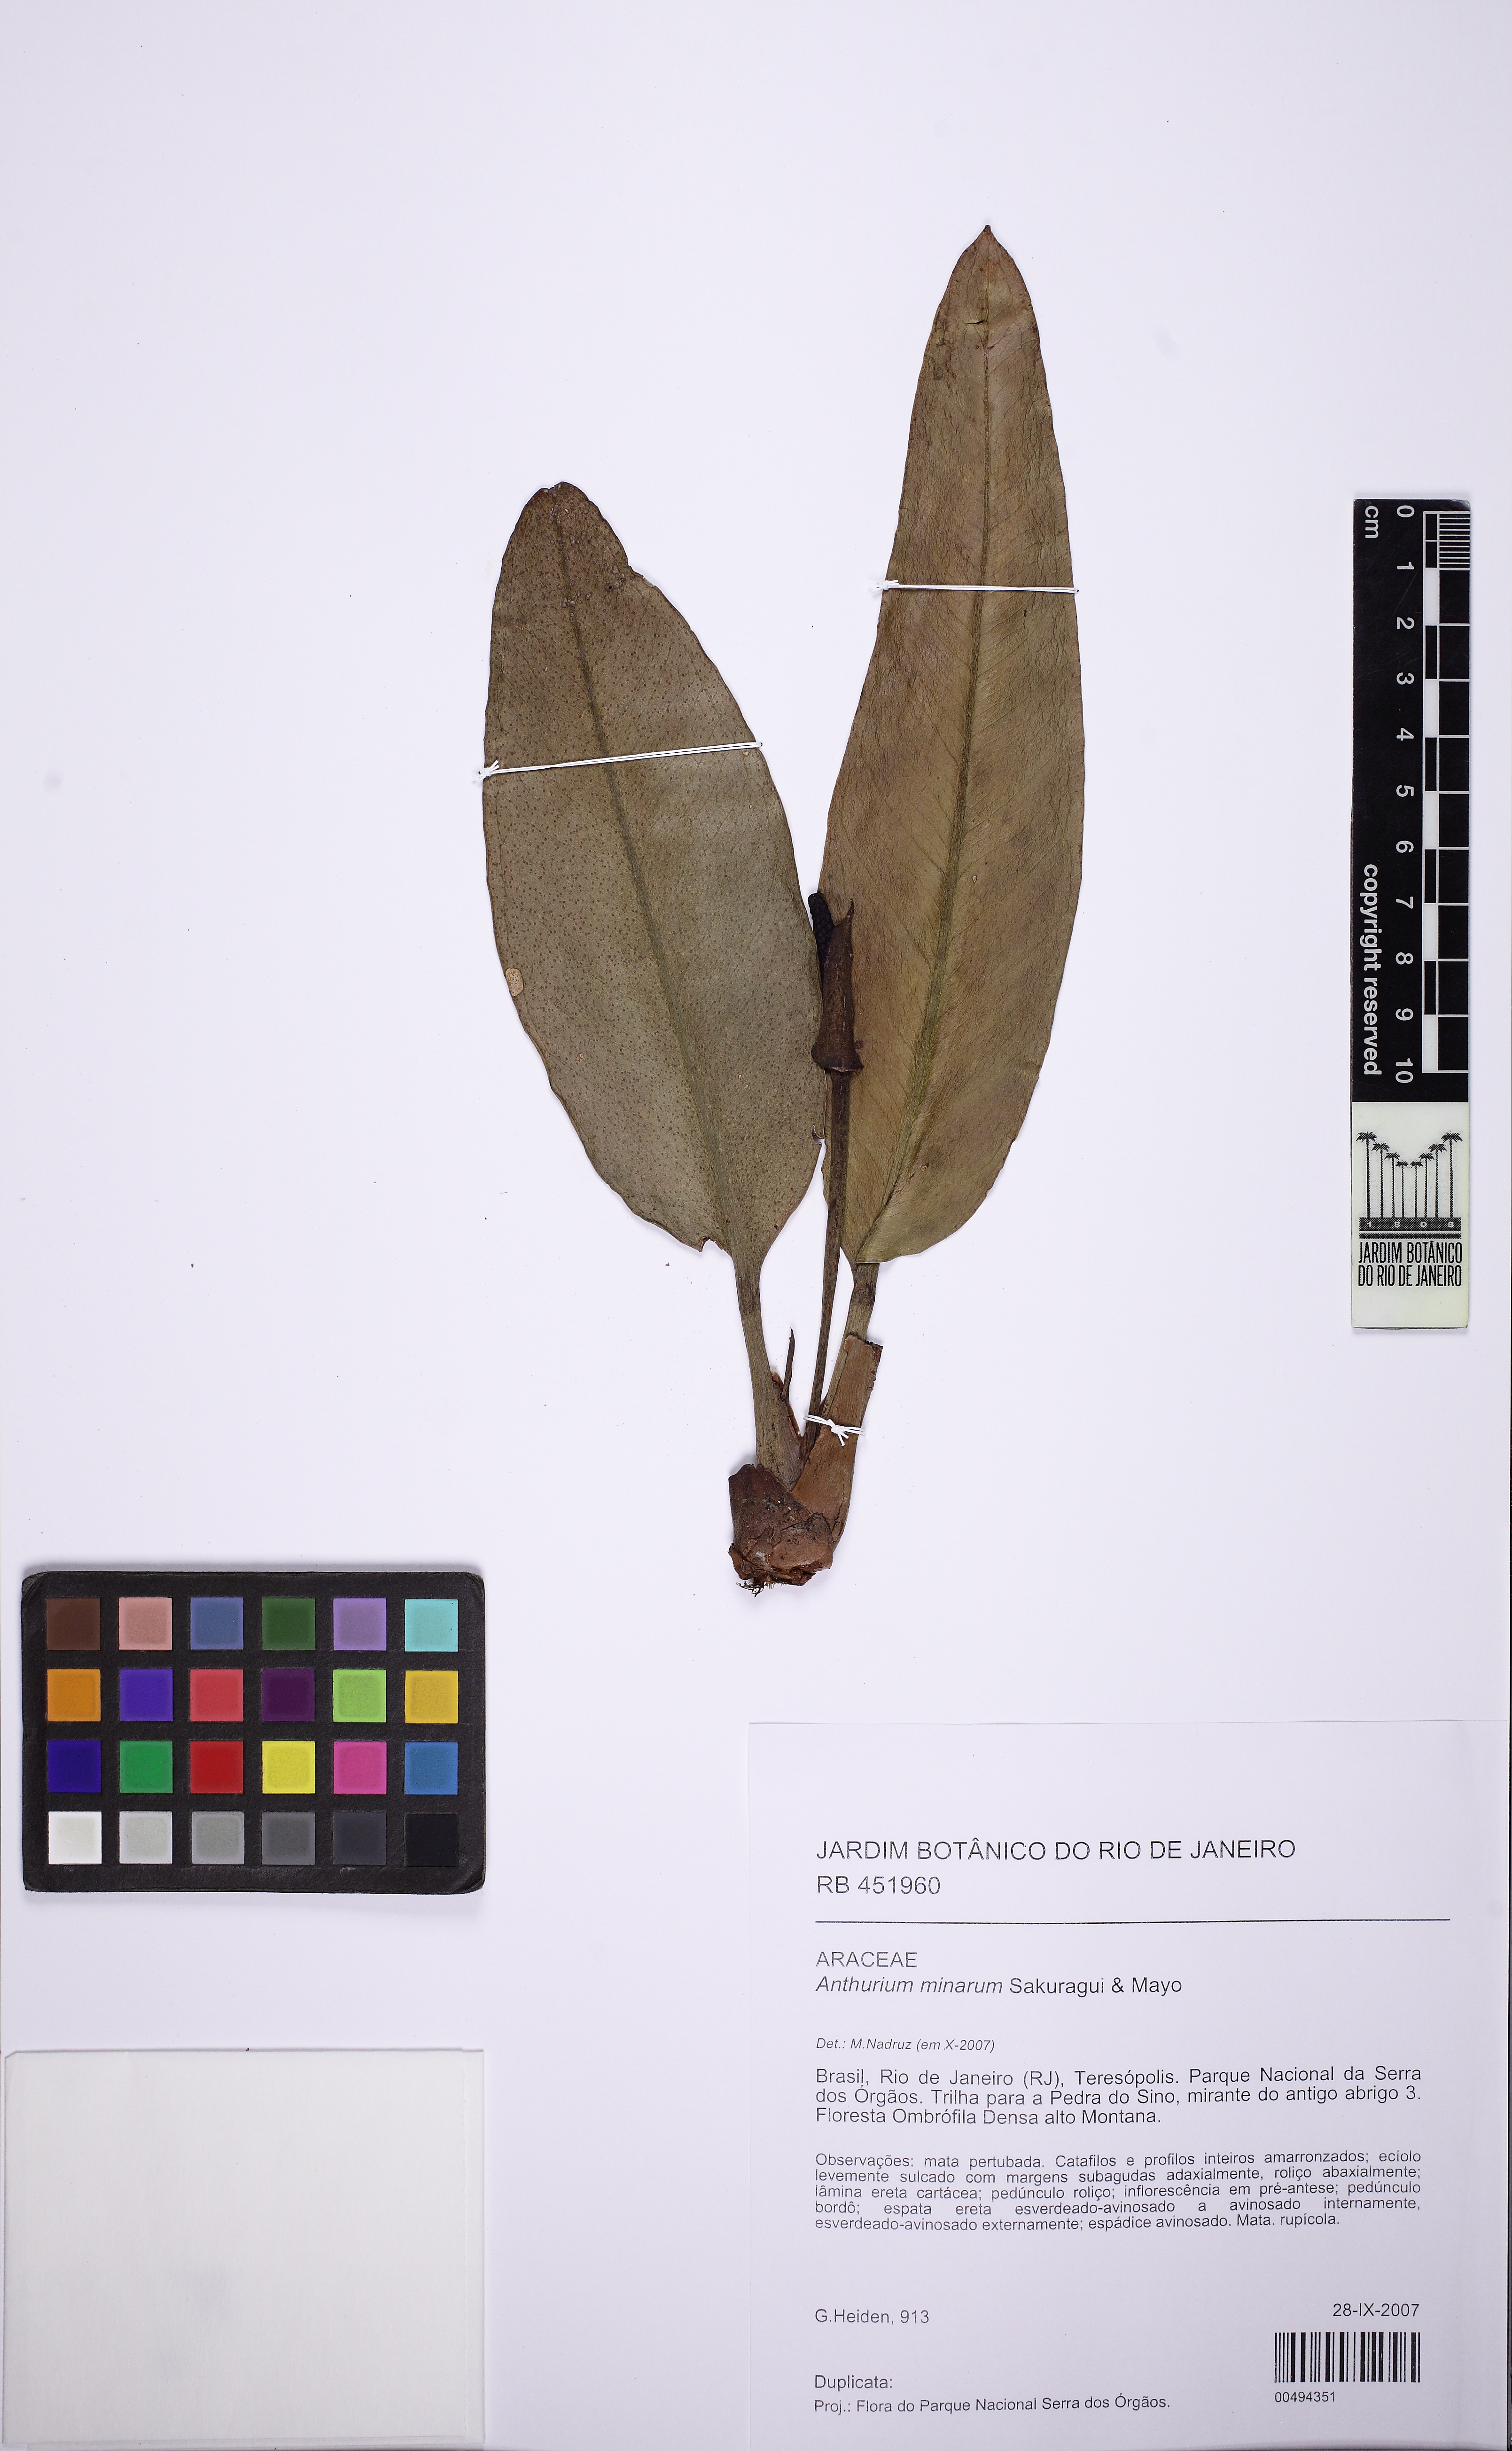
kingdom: Plantae
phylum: Tracheophyta
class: Liliopsida
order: Alismatales
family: Araceae
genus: Anthurium
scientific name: Anthurium minarum
